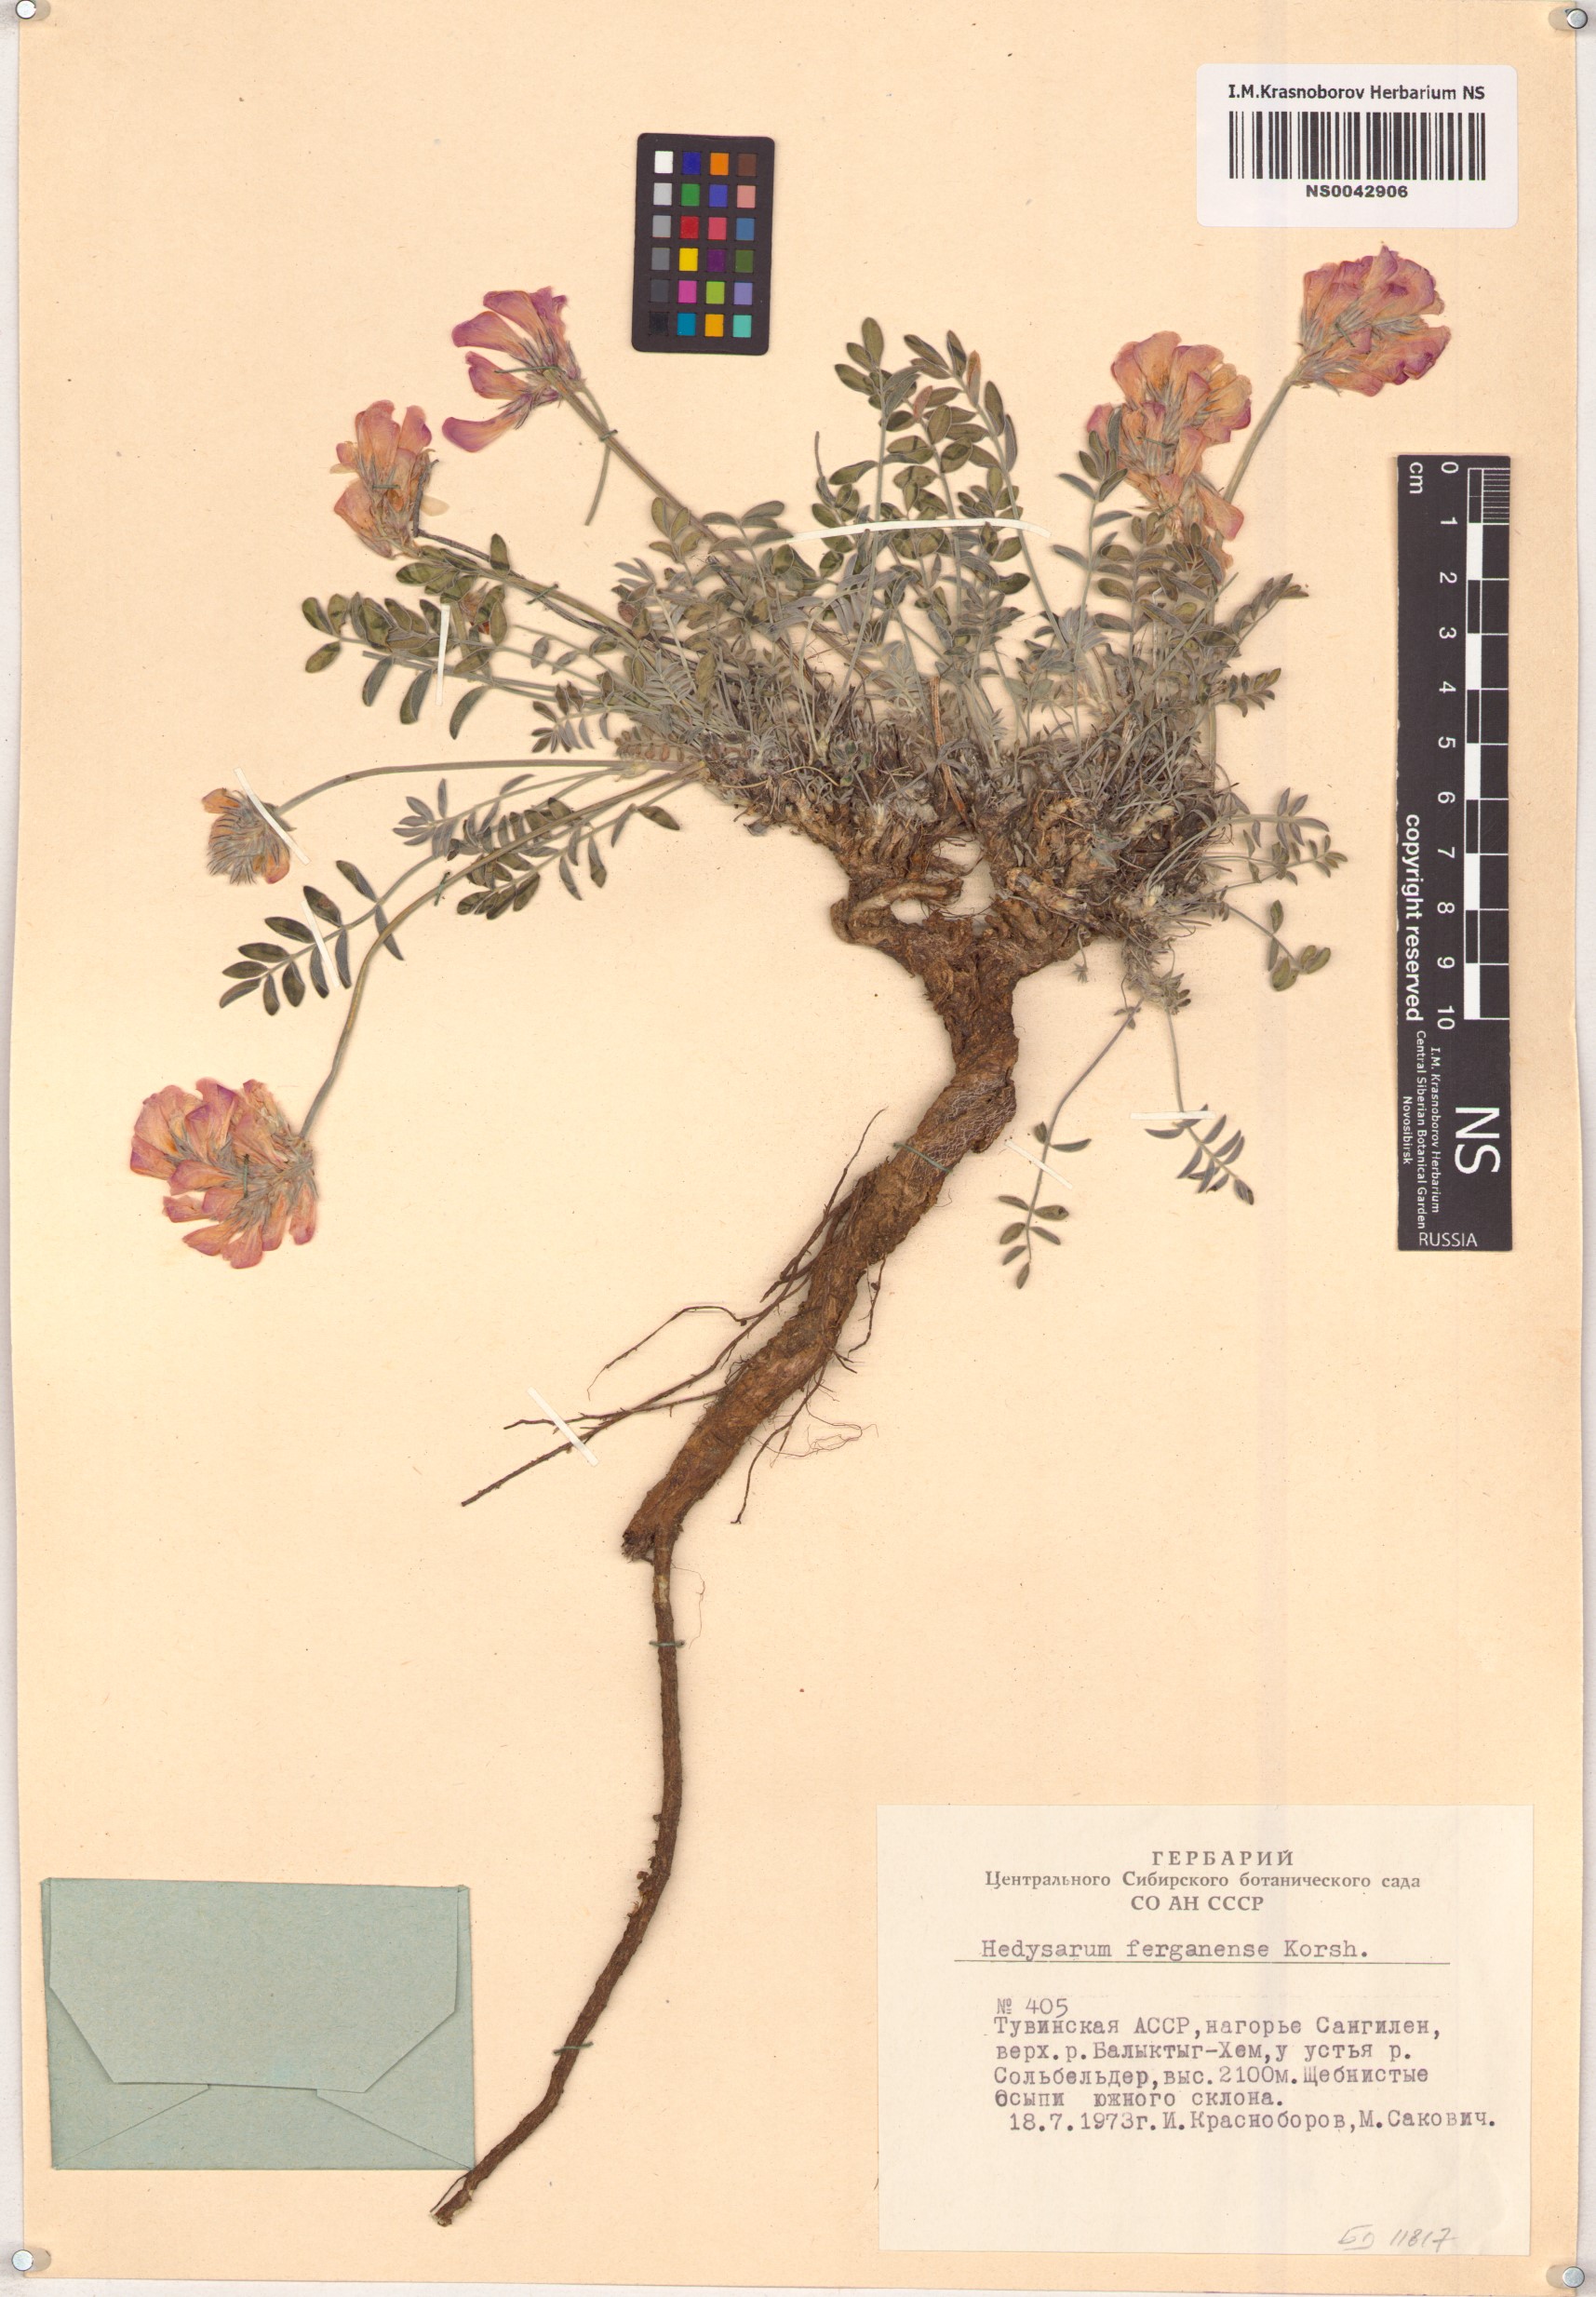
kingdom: Plantae
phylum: Tracheophyta
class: Magnoliopsida
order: Fabales
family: Fabaceae
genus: Hedysarum
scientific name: Hedysarum ferganense
